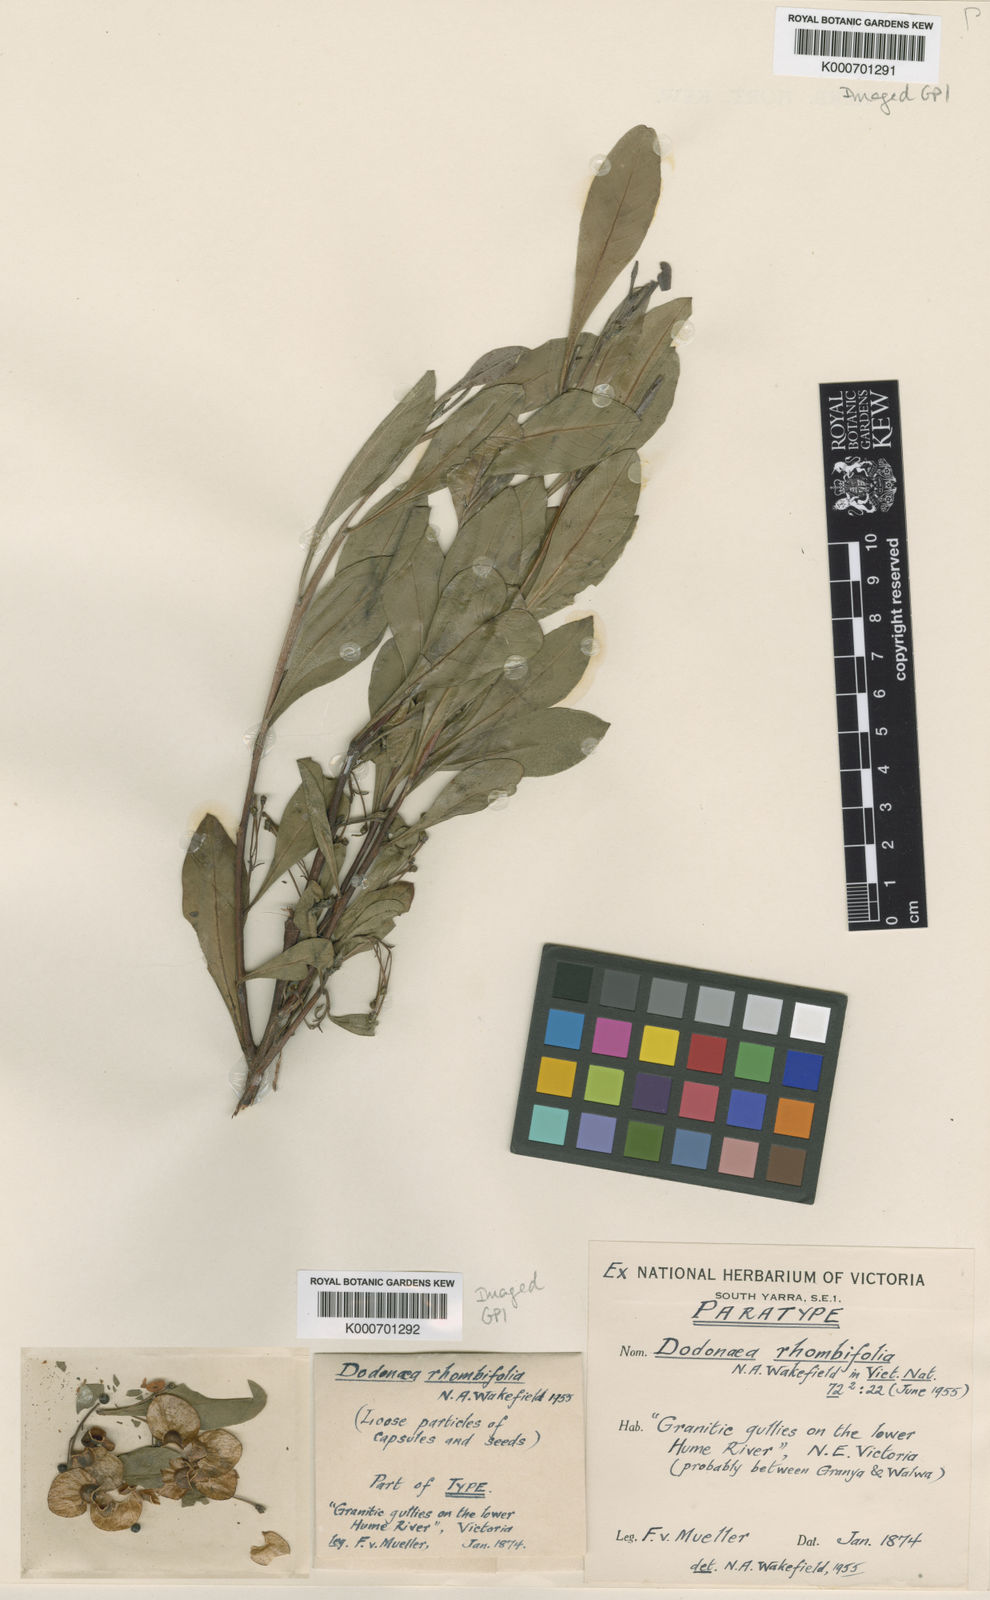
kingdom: Plantae
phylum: Tracheophyta
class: Magnoliopsida
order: Sapindales
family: Sapindaceae
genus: Dodonaea
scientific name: Dodonaea rhombifolia
